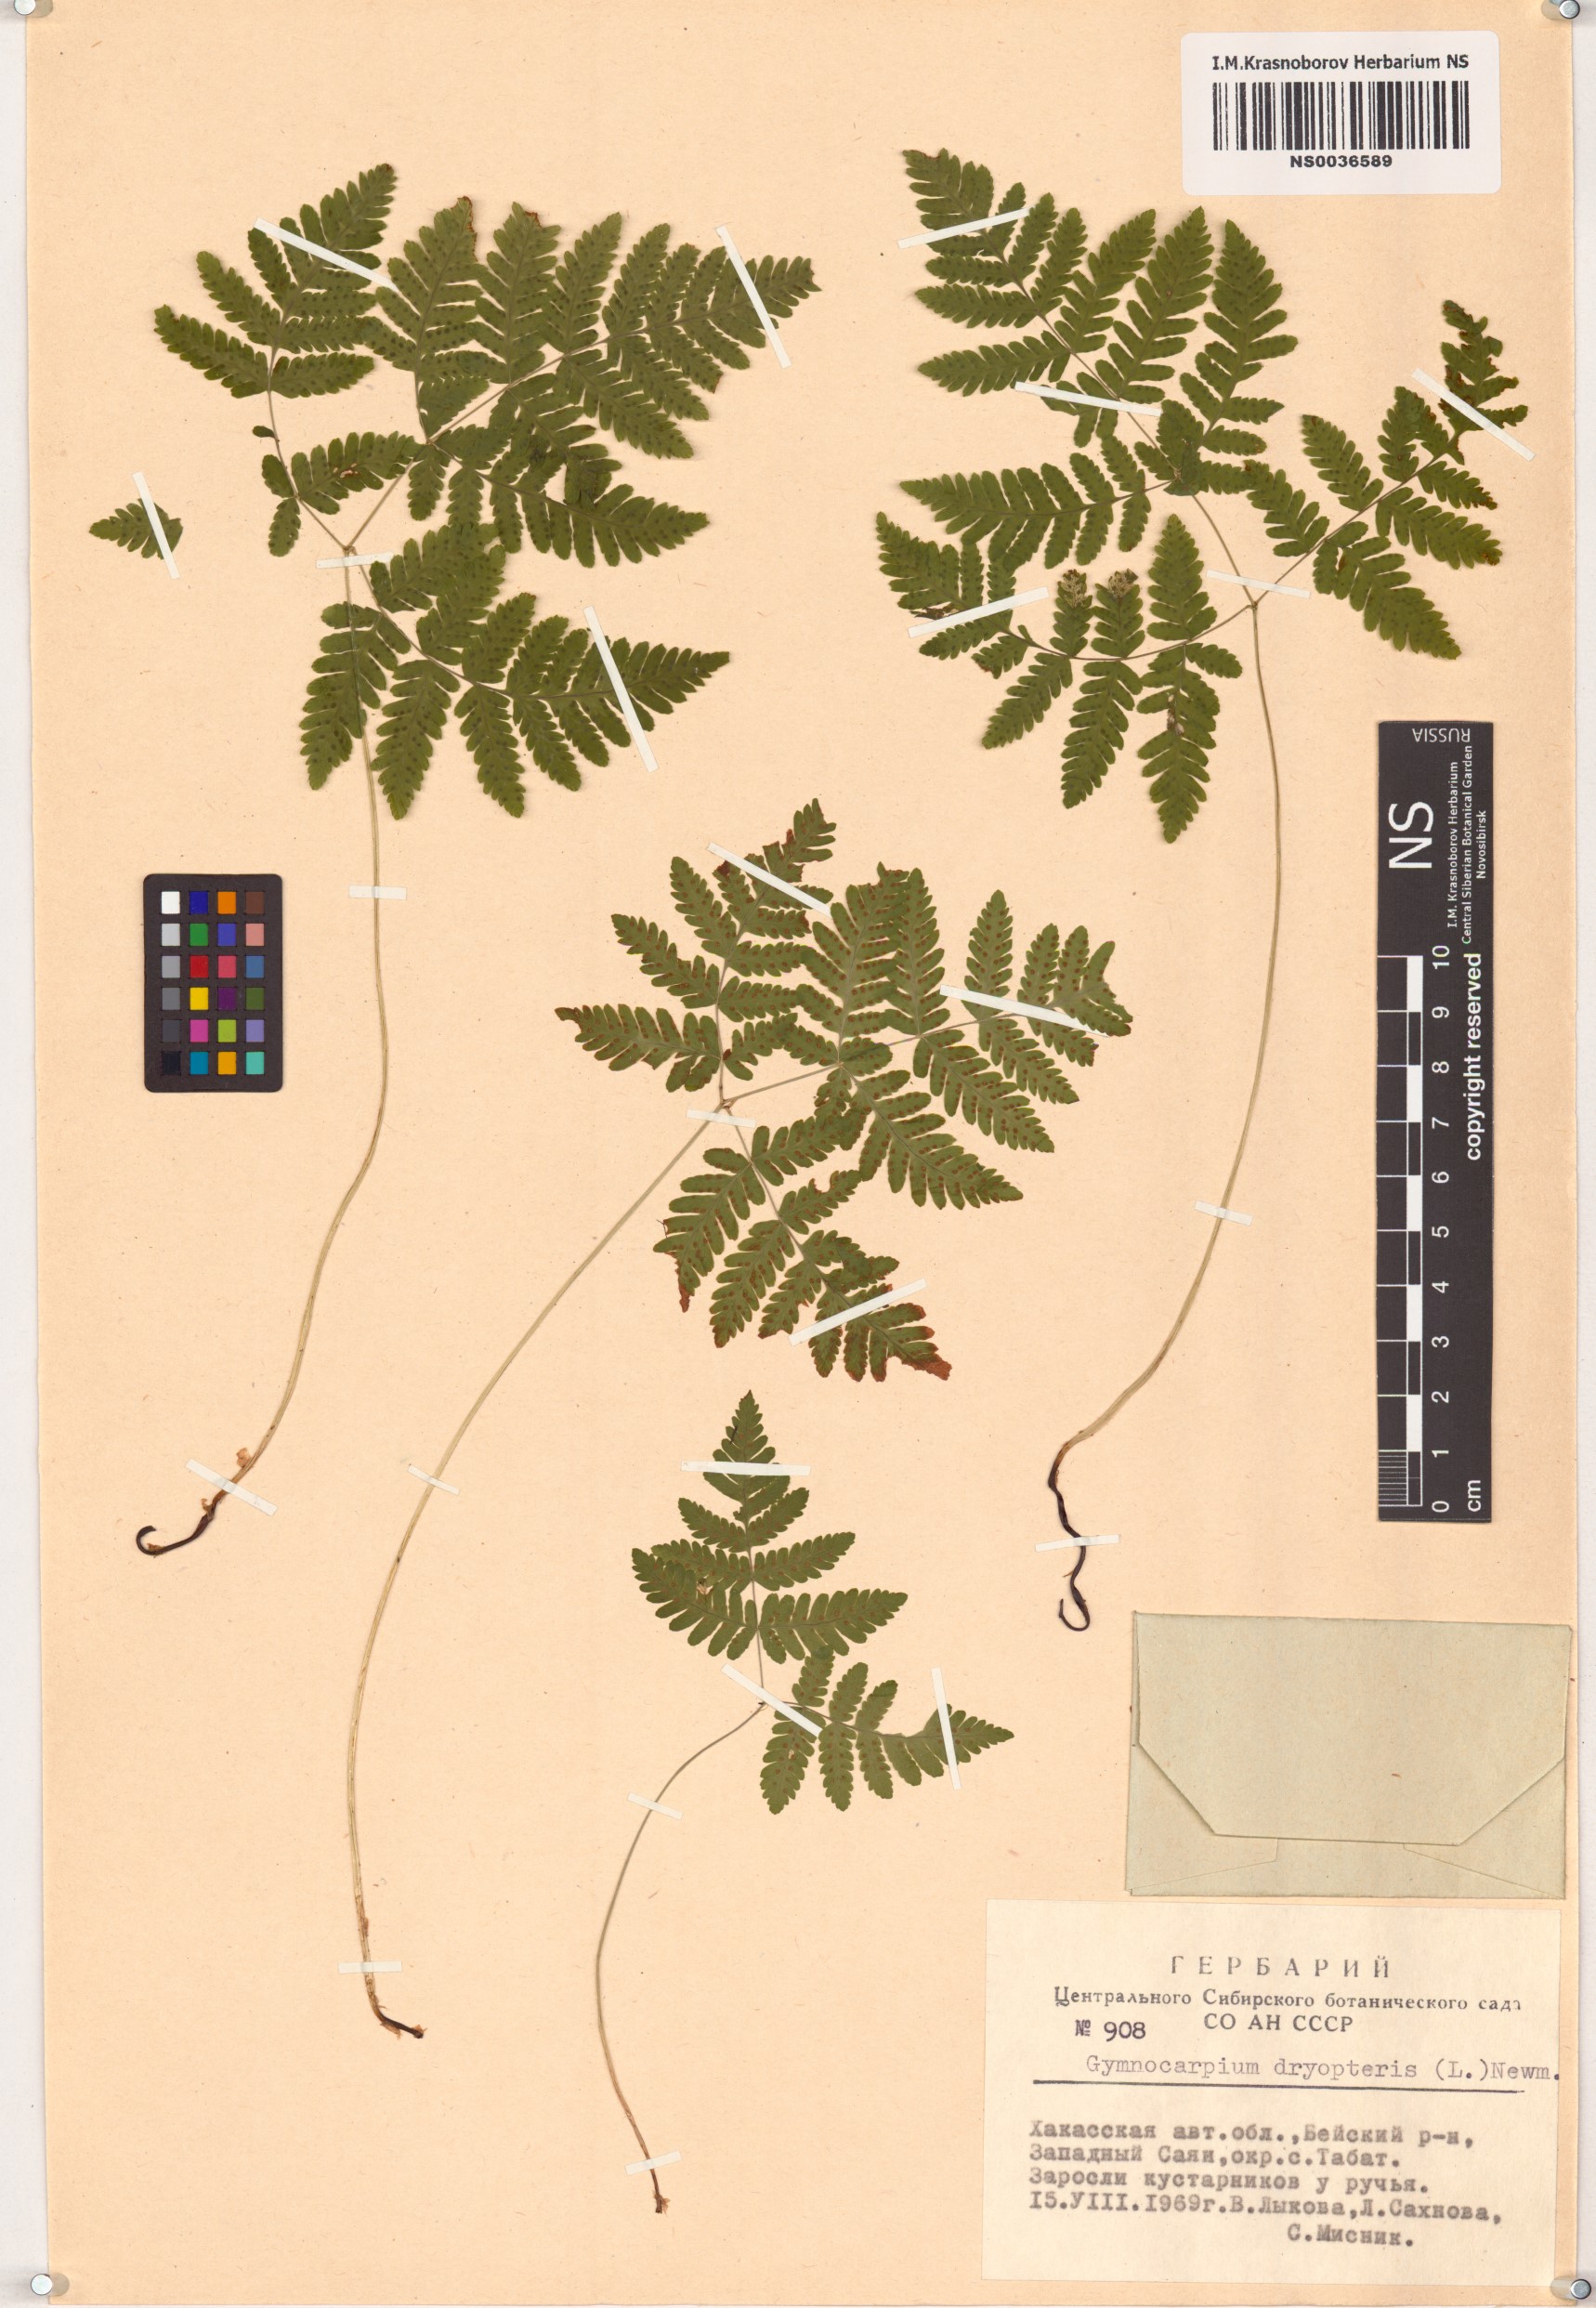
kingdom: Plantae
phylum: Tracheophyta
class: Polypodiopsida
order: Polypodiales
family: Cystopteridaceae
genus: Gymnocarpium
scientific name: Gymnocarpium dryopteris
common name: Oak fern
